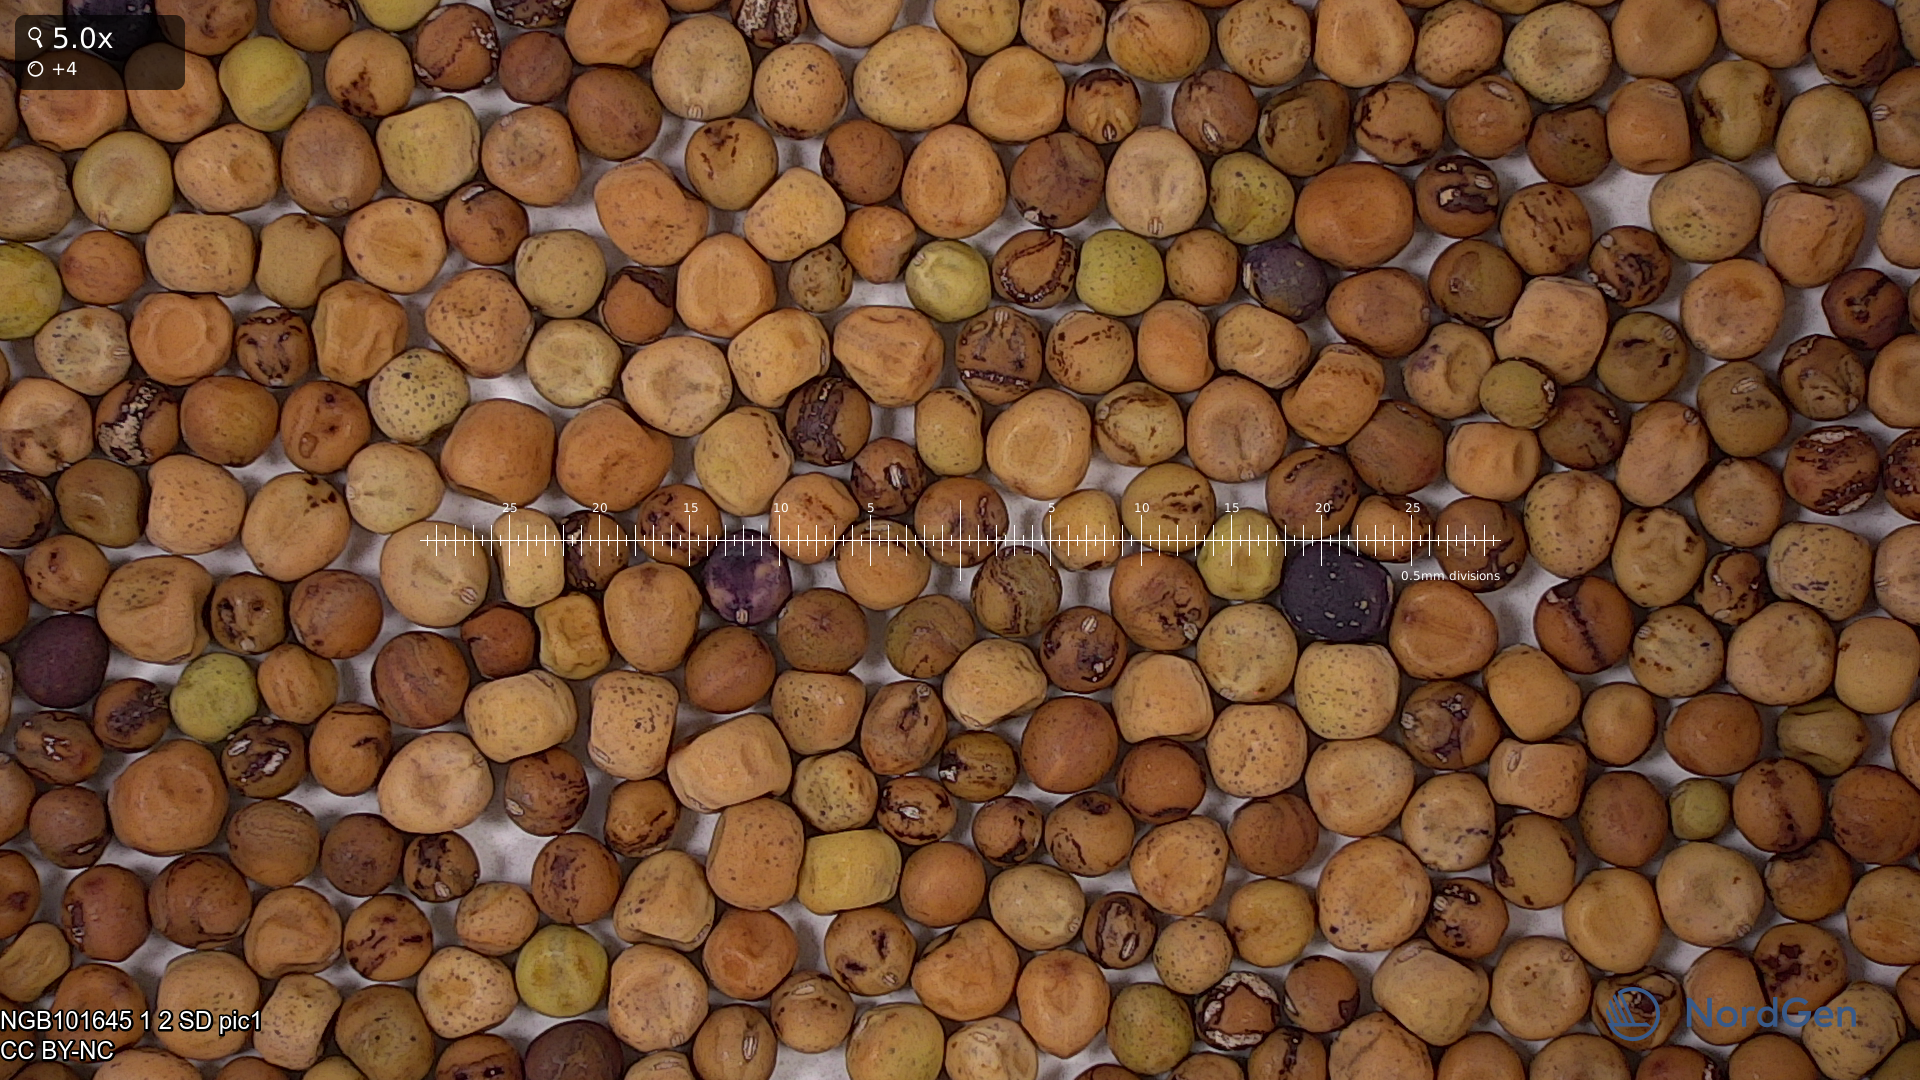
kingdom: Plantae
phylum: Tracheophyta
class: Magnoliopsida
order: Fabales
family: Fabaceae
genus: Lathyrus
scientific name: Lathyrus oleraceus
